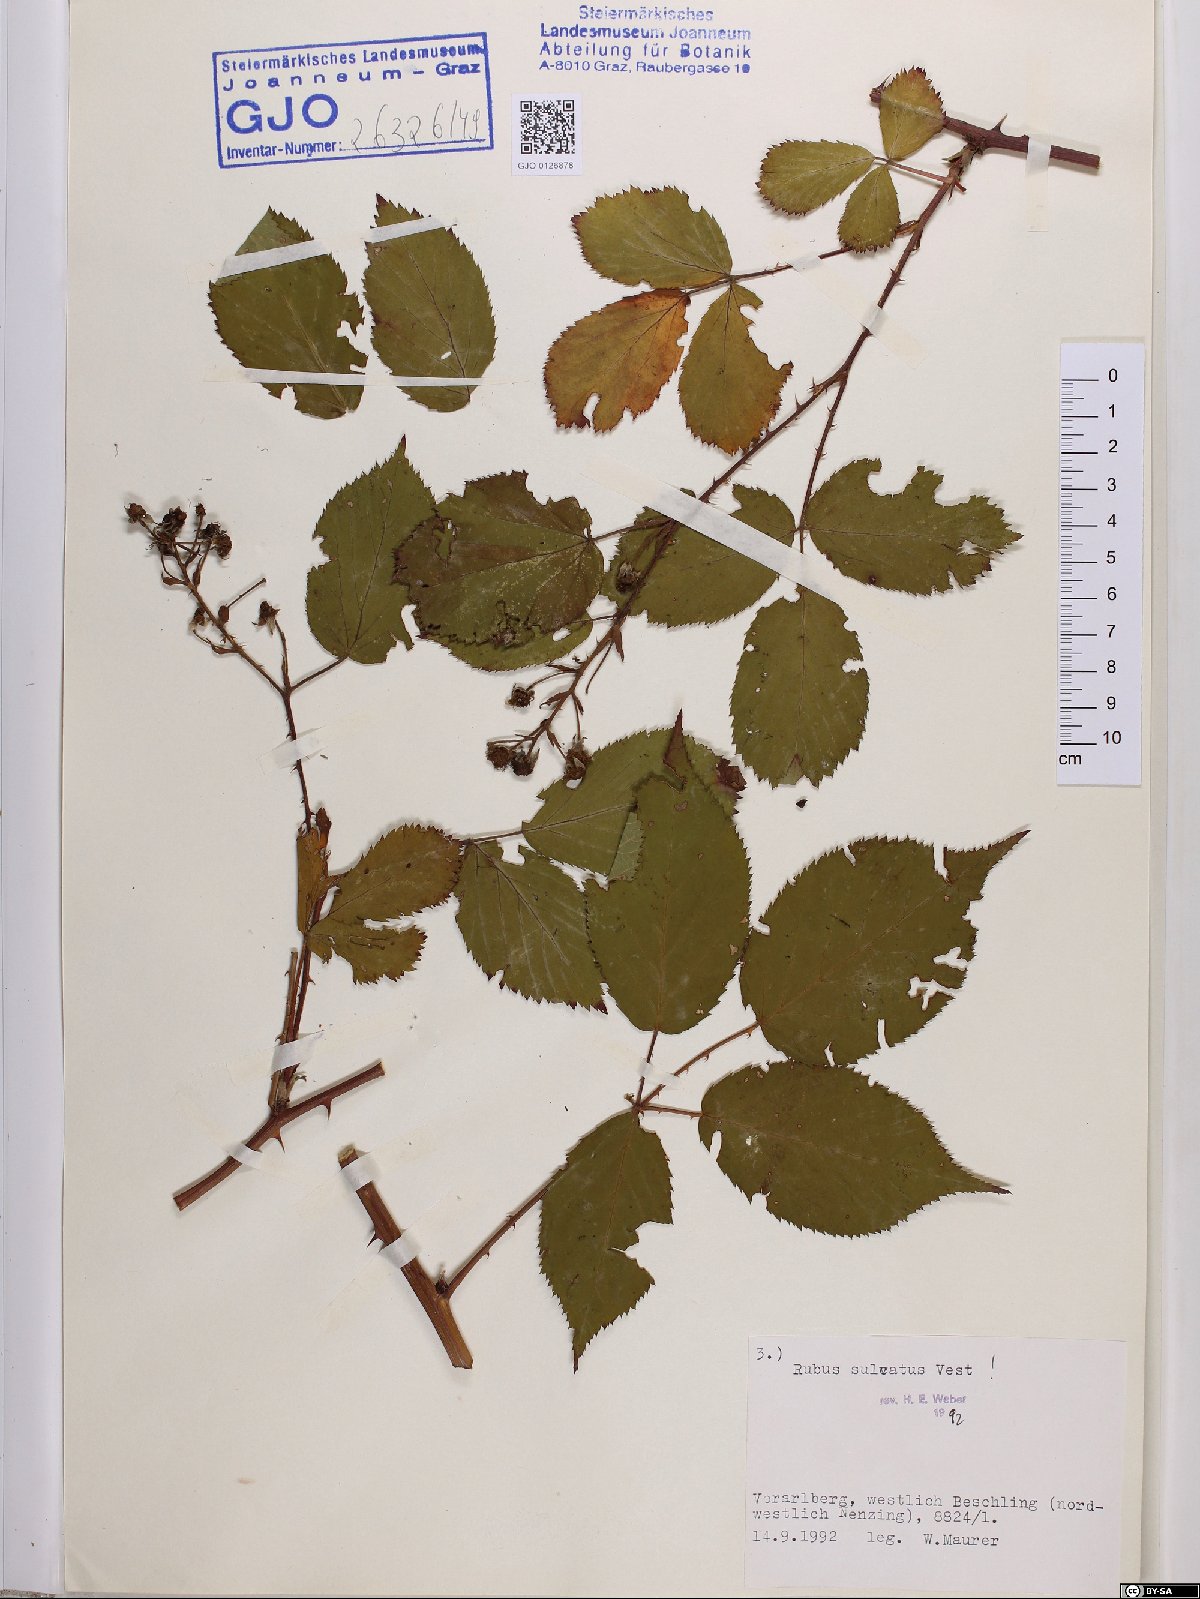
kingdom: Plantae
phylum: Tracheophyta
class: Magnoliopsida
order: Rosales
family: Rosaceae
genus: Rubus
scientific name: Rubus sulcatus
